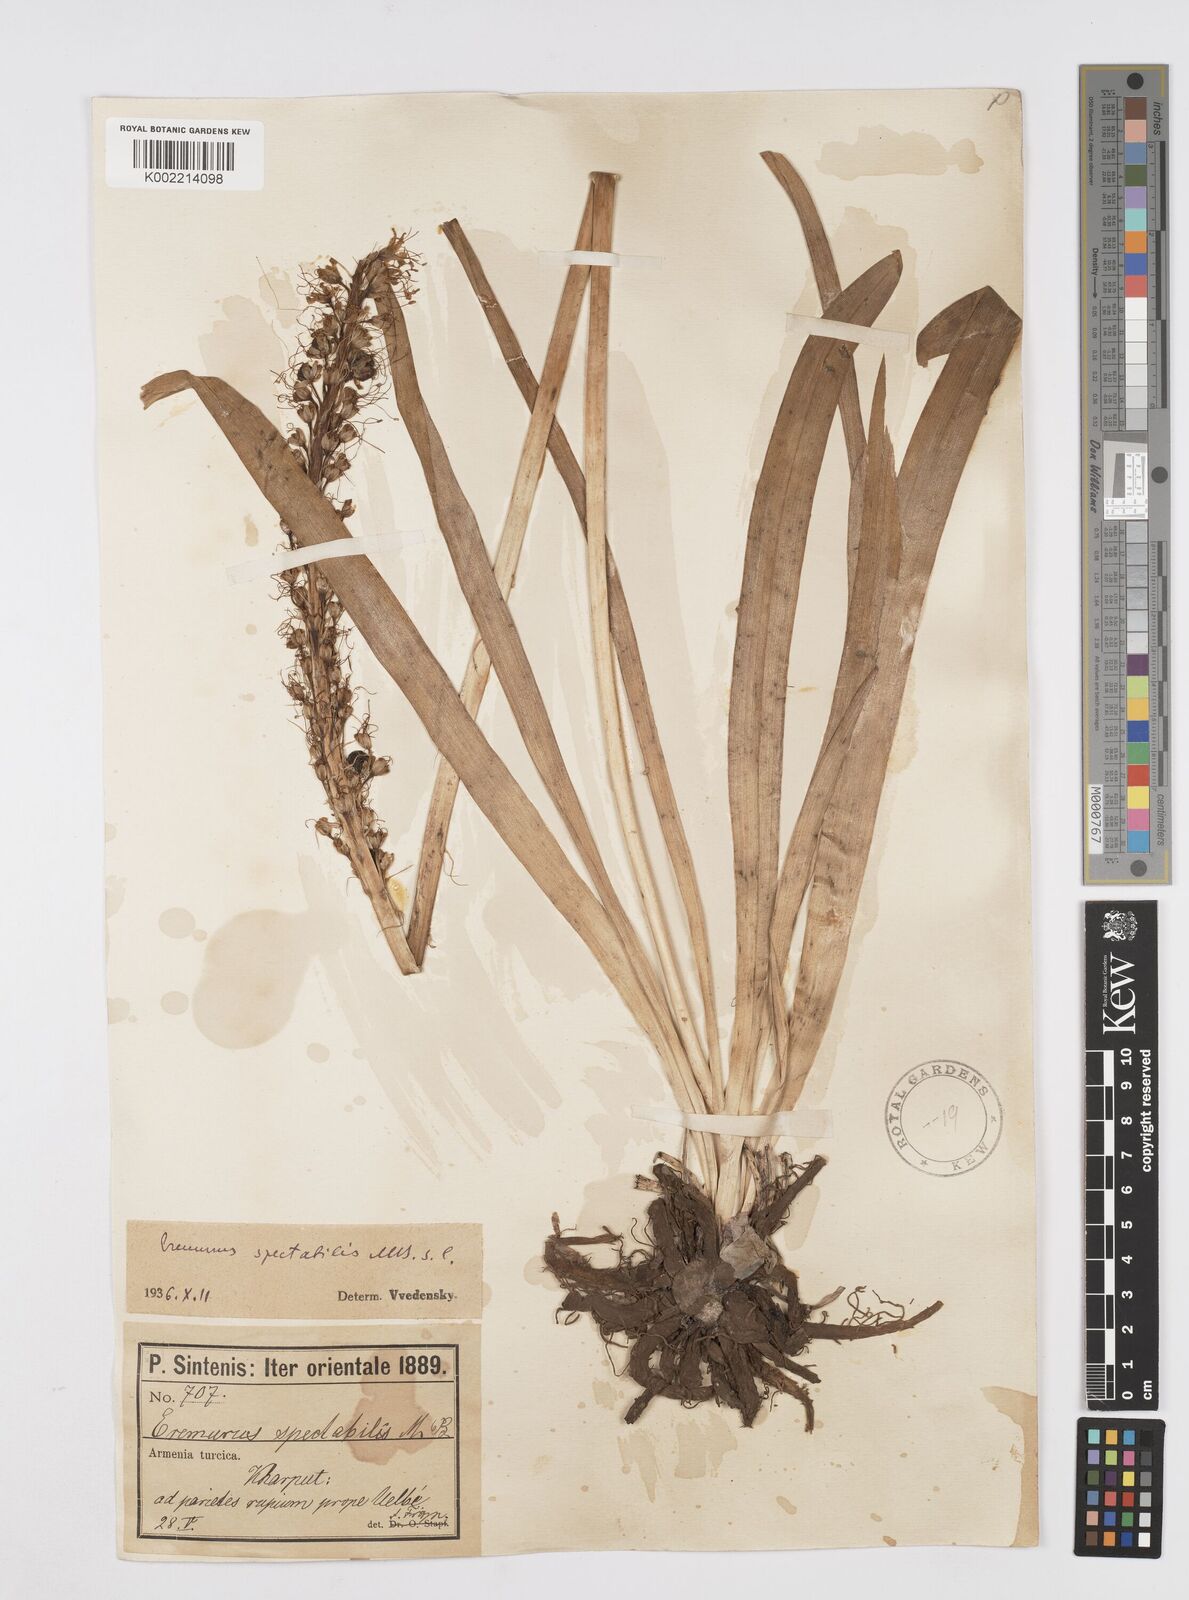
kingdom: Plantae
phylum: Tracheophyta
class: Liliopsida
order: Asparagales
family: Asphodelaceae
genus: Eremurus
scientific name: Eremurus spectabilis
